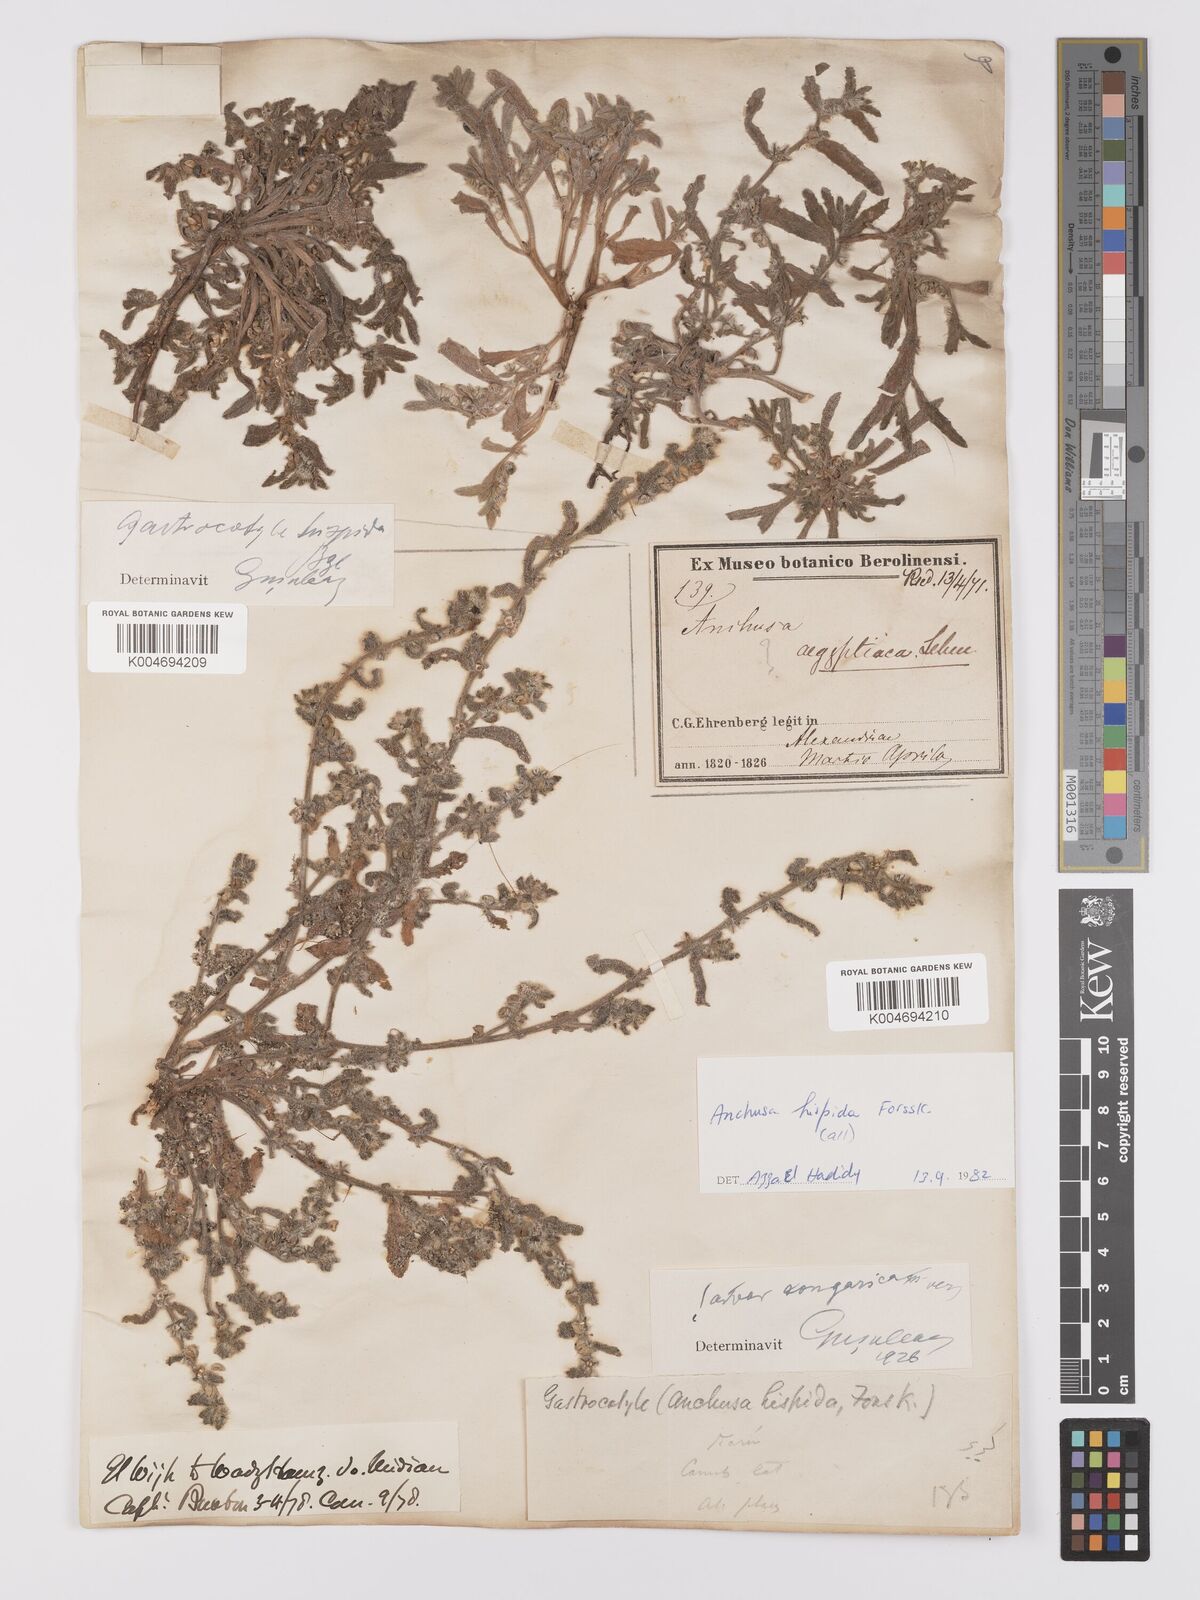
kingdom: Plantae
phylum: Tracheophyta
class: Magnoliopsida
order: Boraginales
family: Boraginaceae
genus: Gastrocotyle
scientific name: Gastrocotyle hispida
